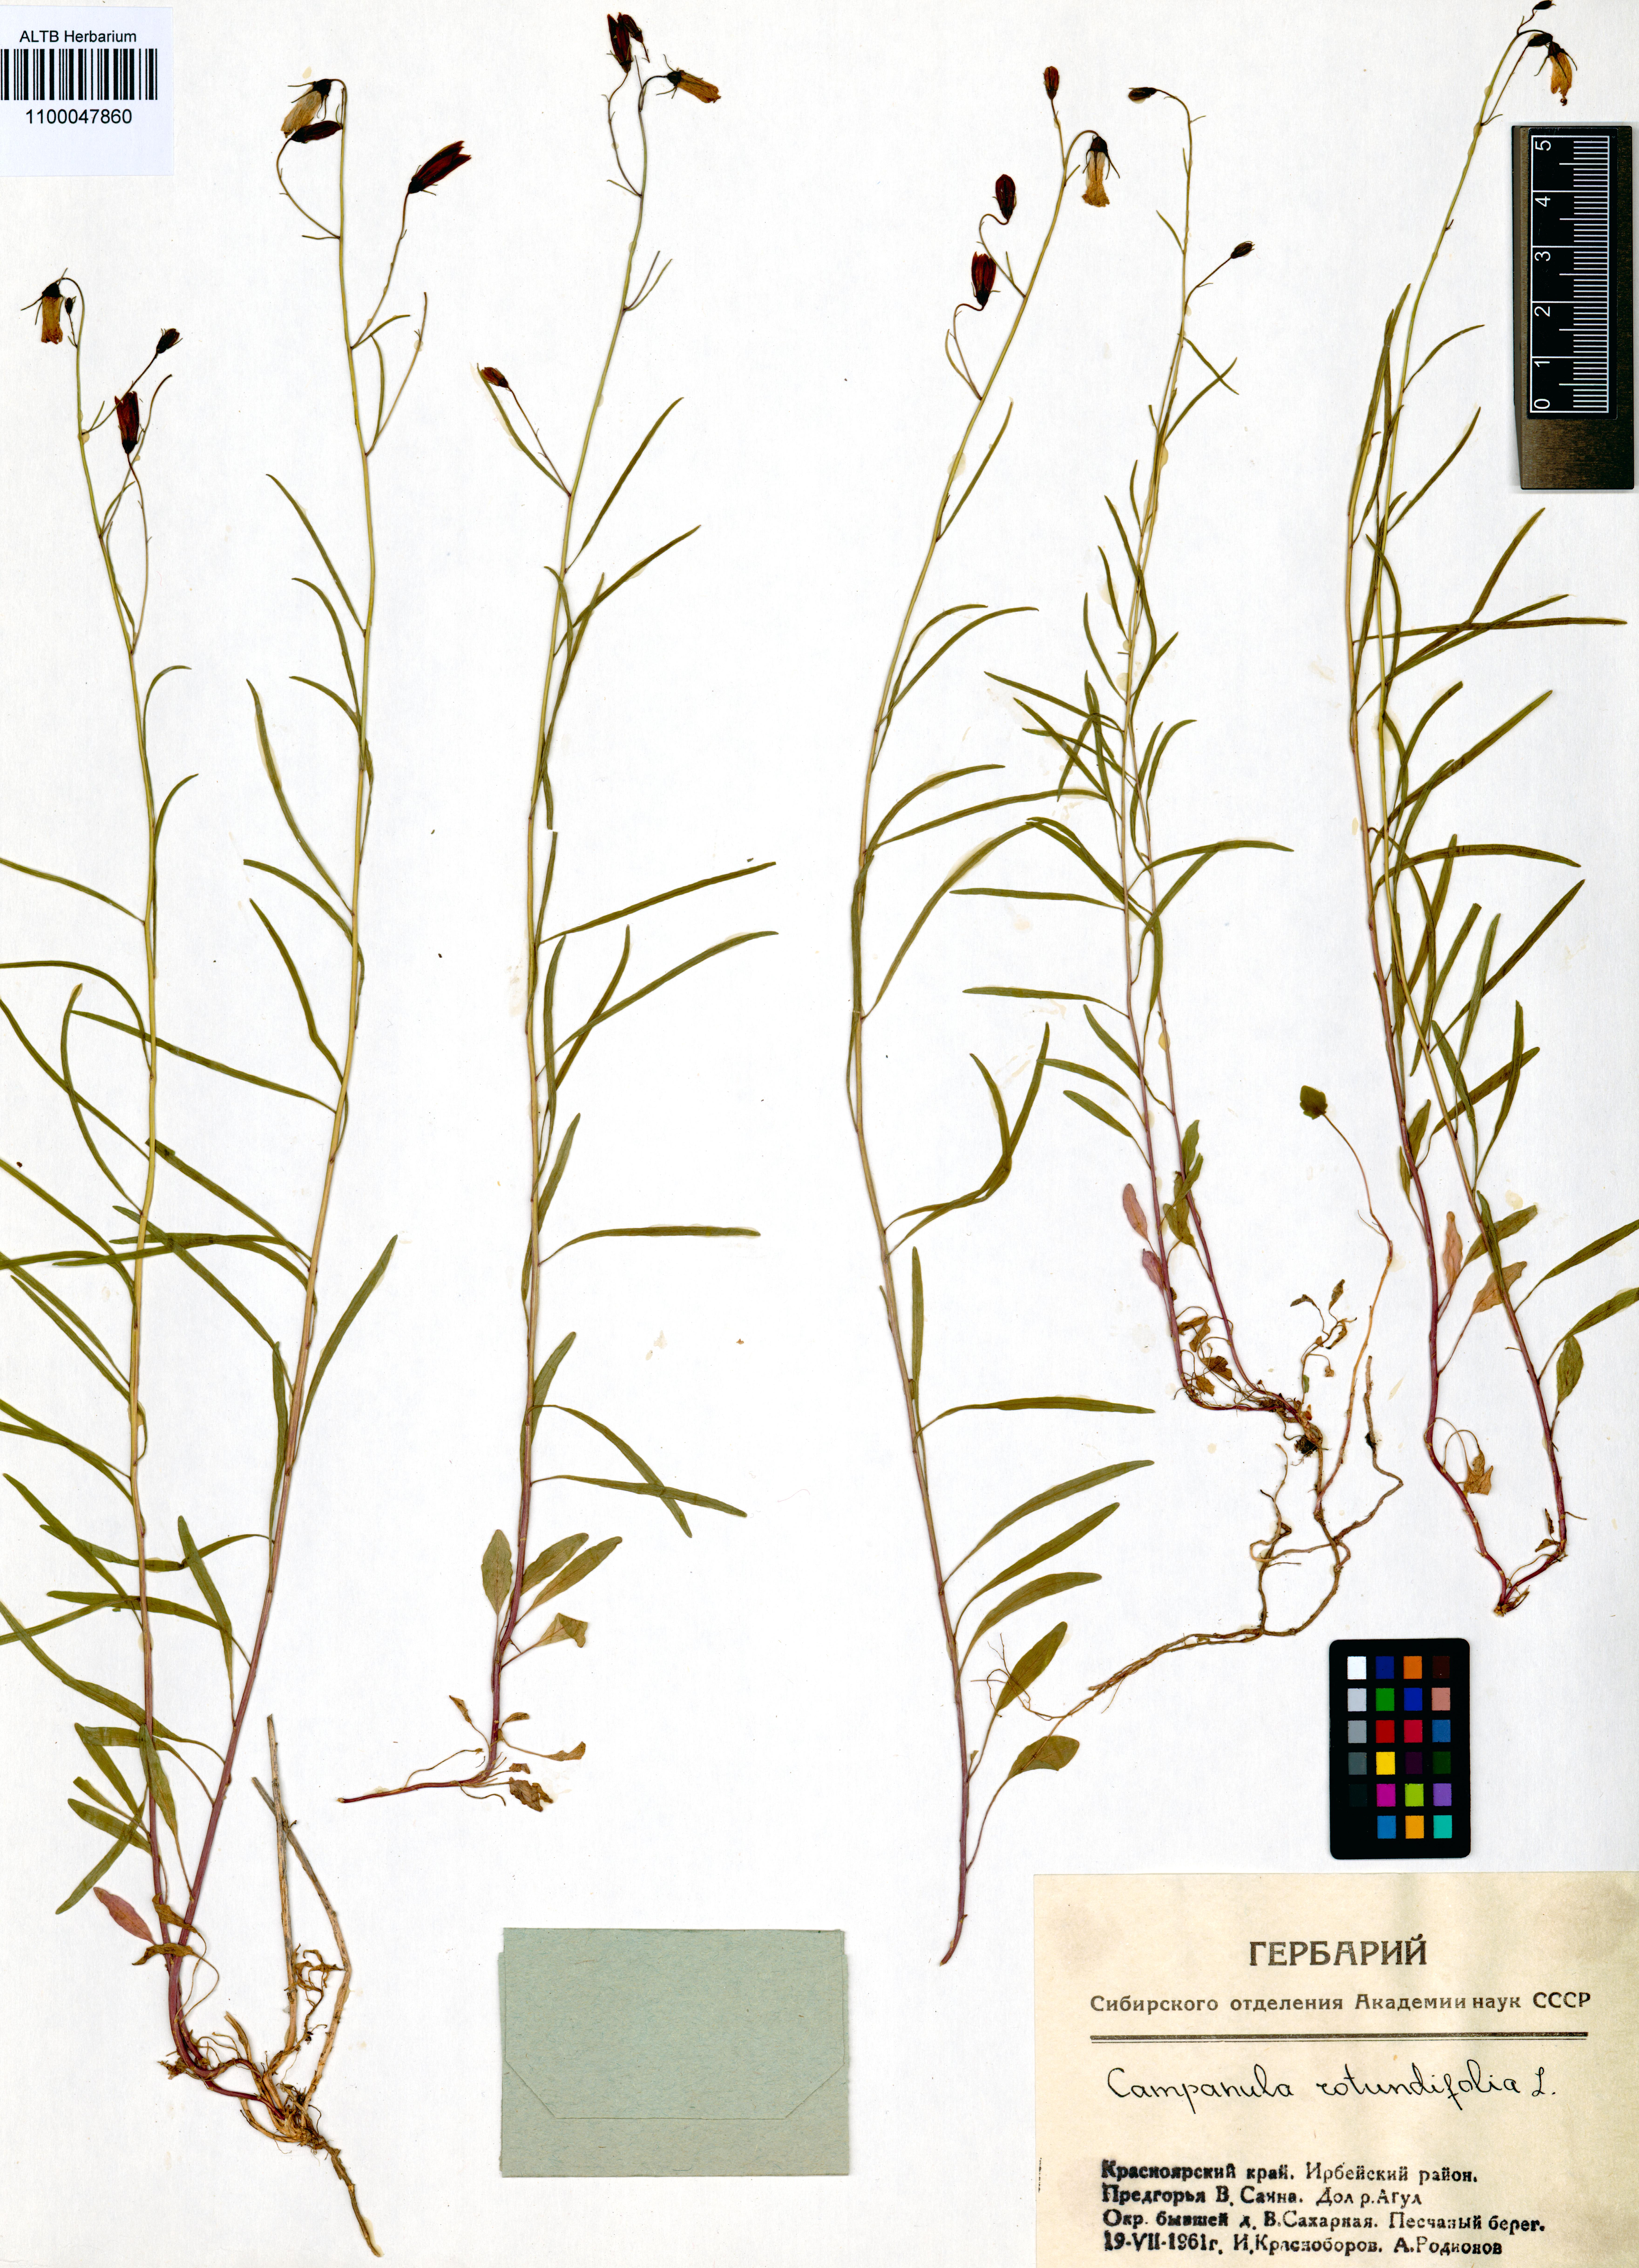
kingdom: Plantae
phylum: Tracheophyta
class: Magnoliopsida
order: Asterales
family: Campanulaceae
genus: Campanula
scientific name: Campanula rotundifolia
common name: Harebell
